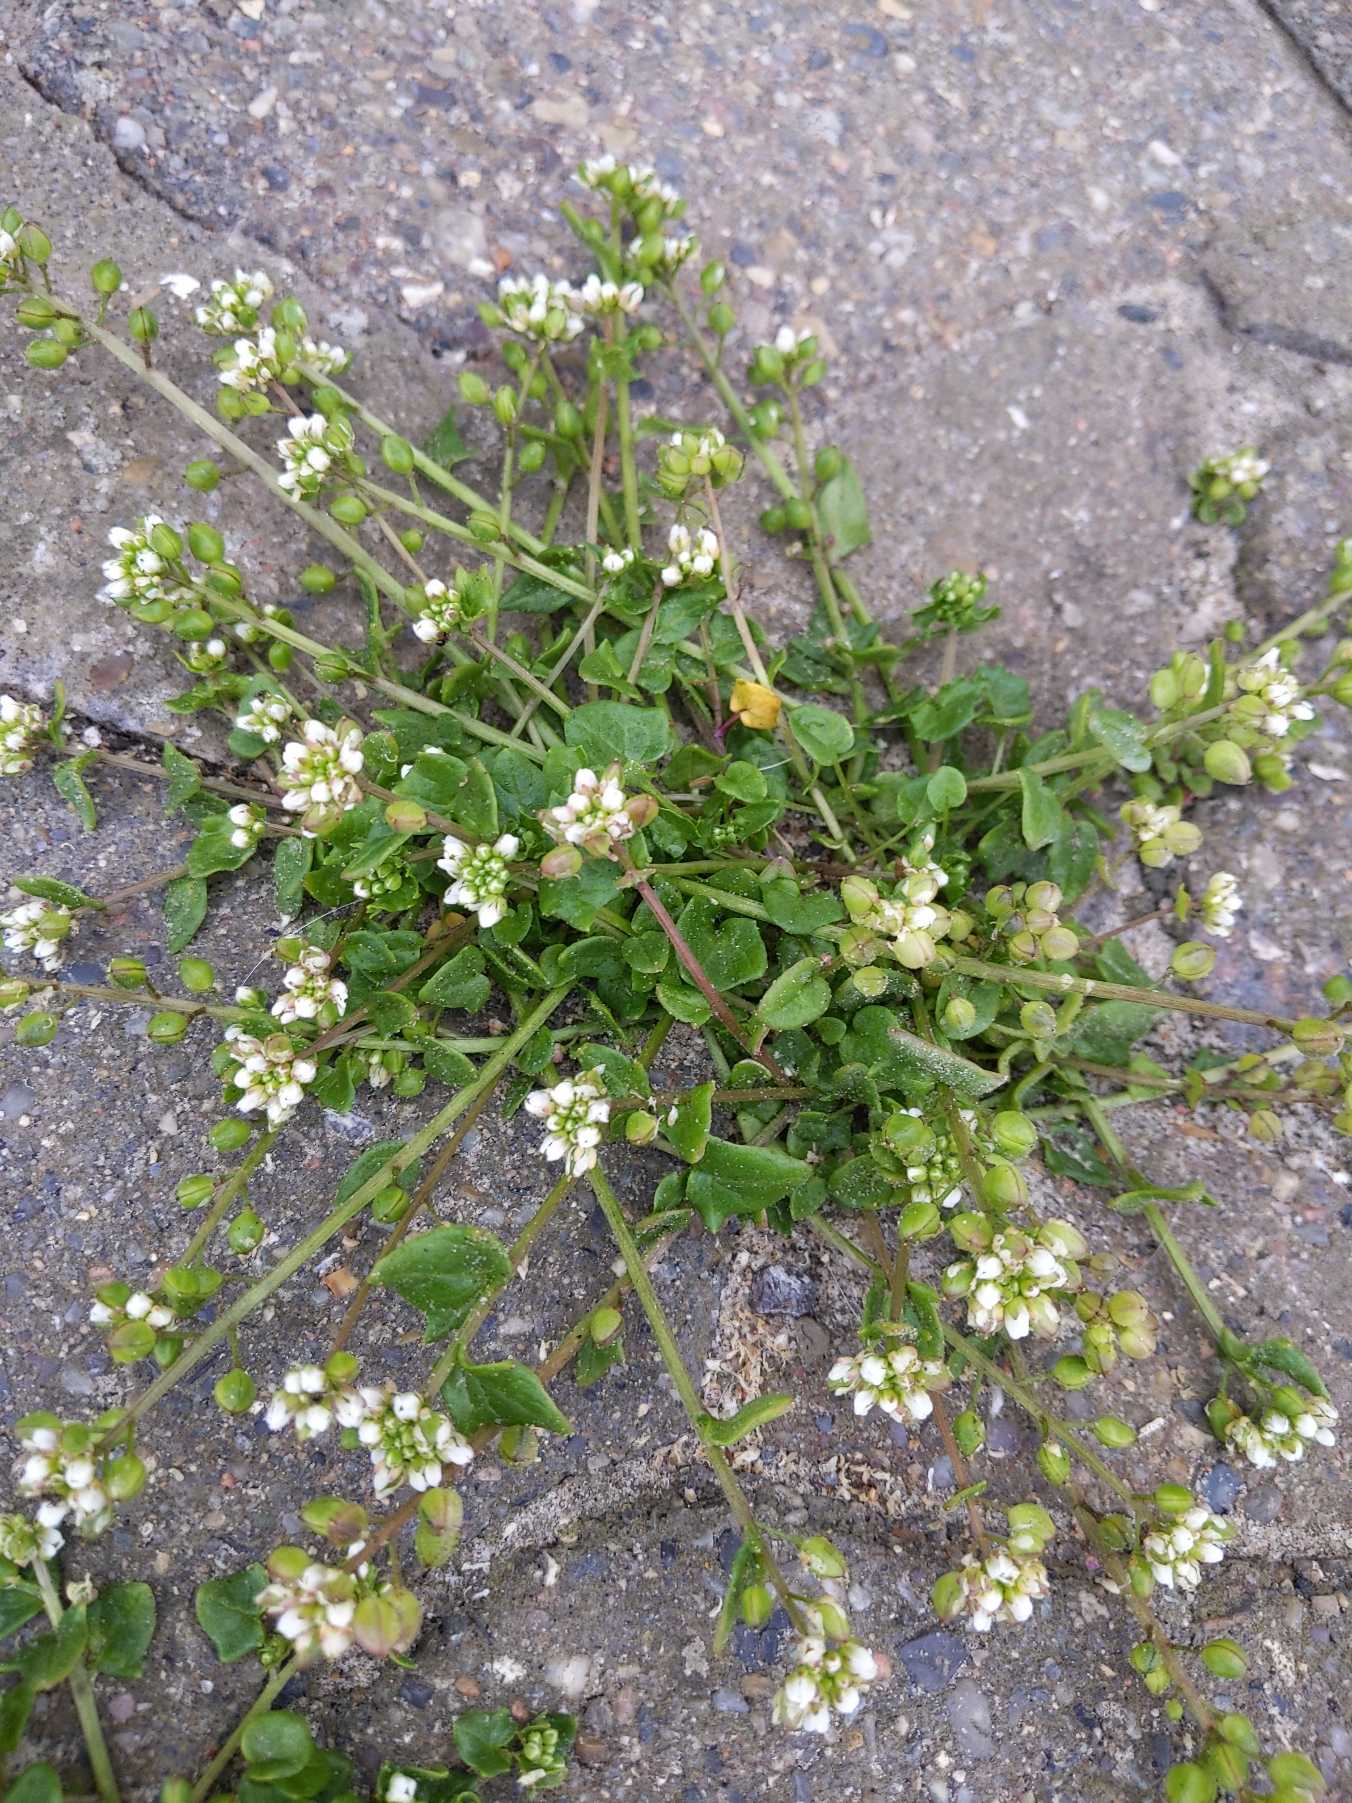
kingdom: Plantae
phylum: Tracheophyta
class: Magnoliopsida
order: Brassicales
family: Brassicaceae
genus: Cochlearia
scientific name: Cochlearia officinalis
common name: Læge-kokleare (underart)
